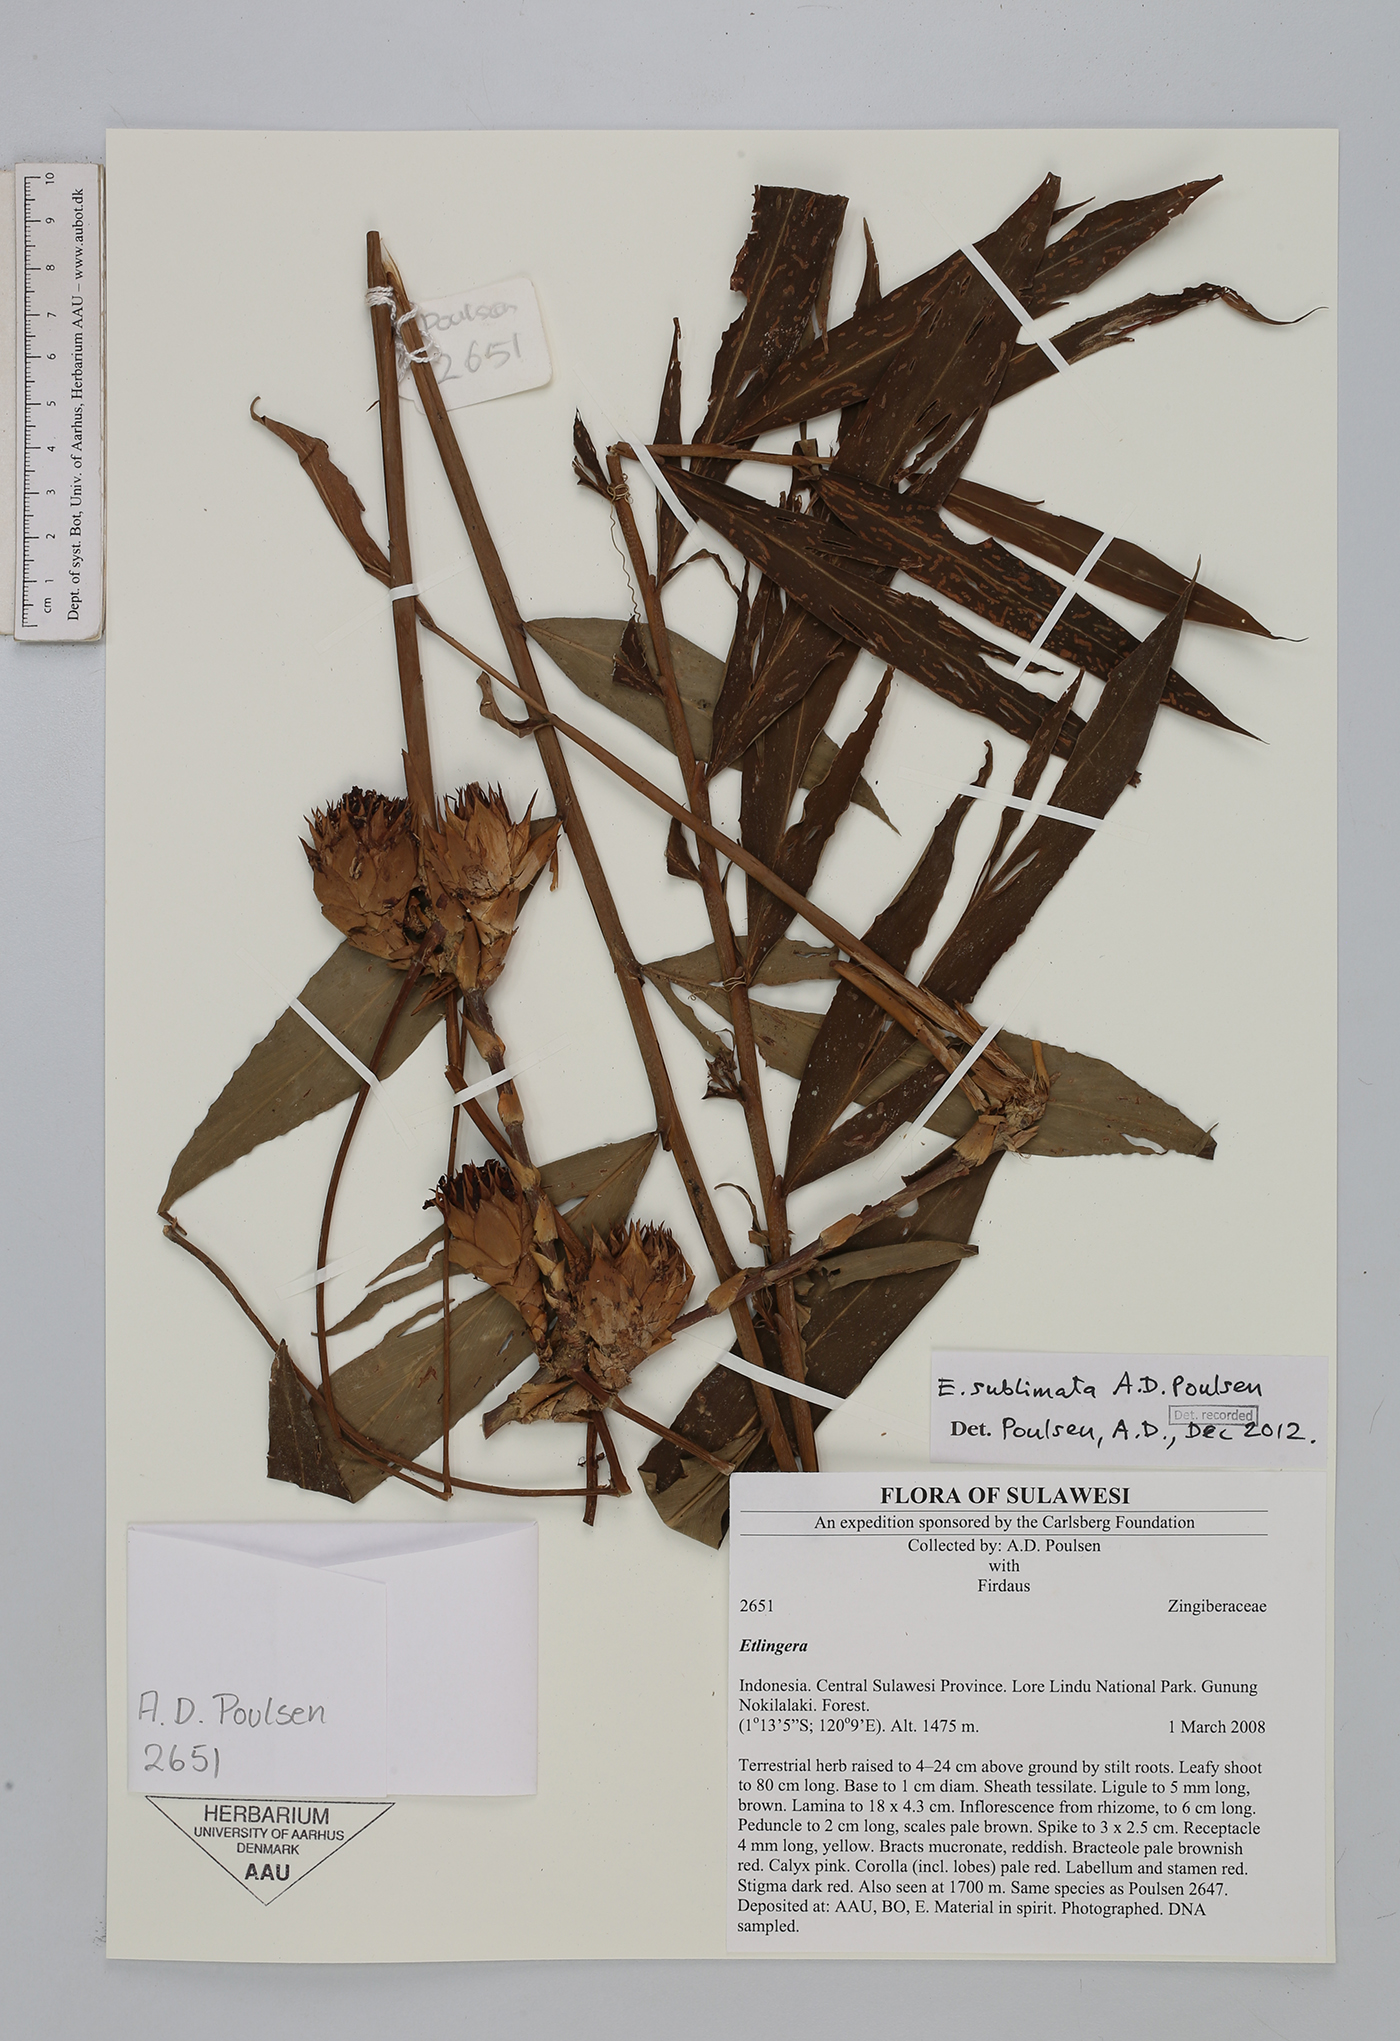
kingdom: Plantae
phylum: Tracheophyta
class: Liliopsida
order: Zingiberales
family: Zingiberaceae
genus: Etlingera
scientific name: Etlingera sublimata
